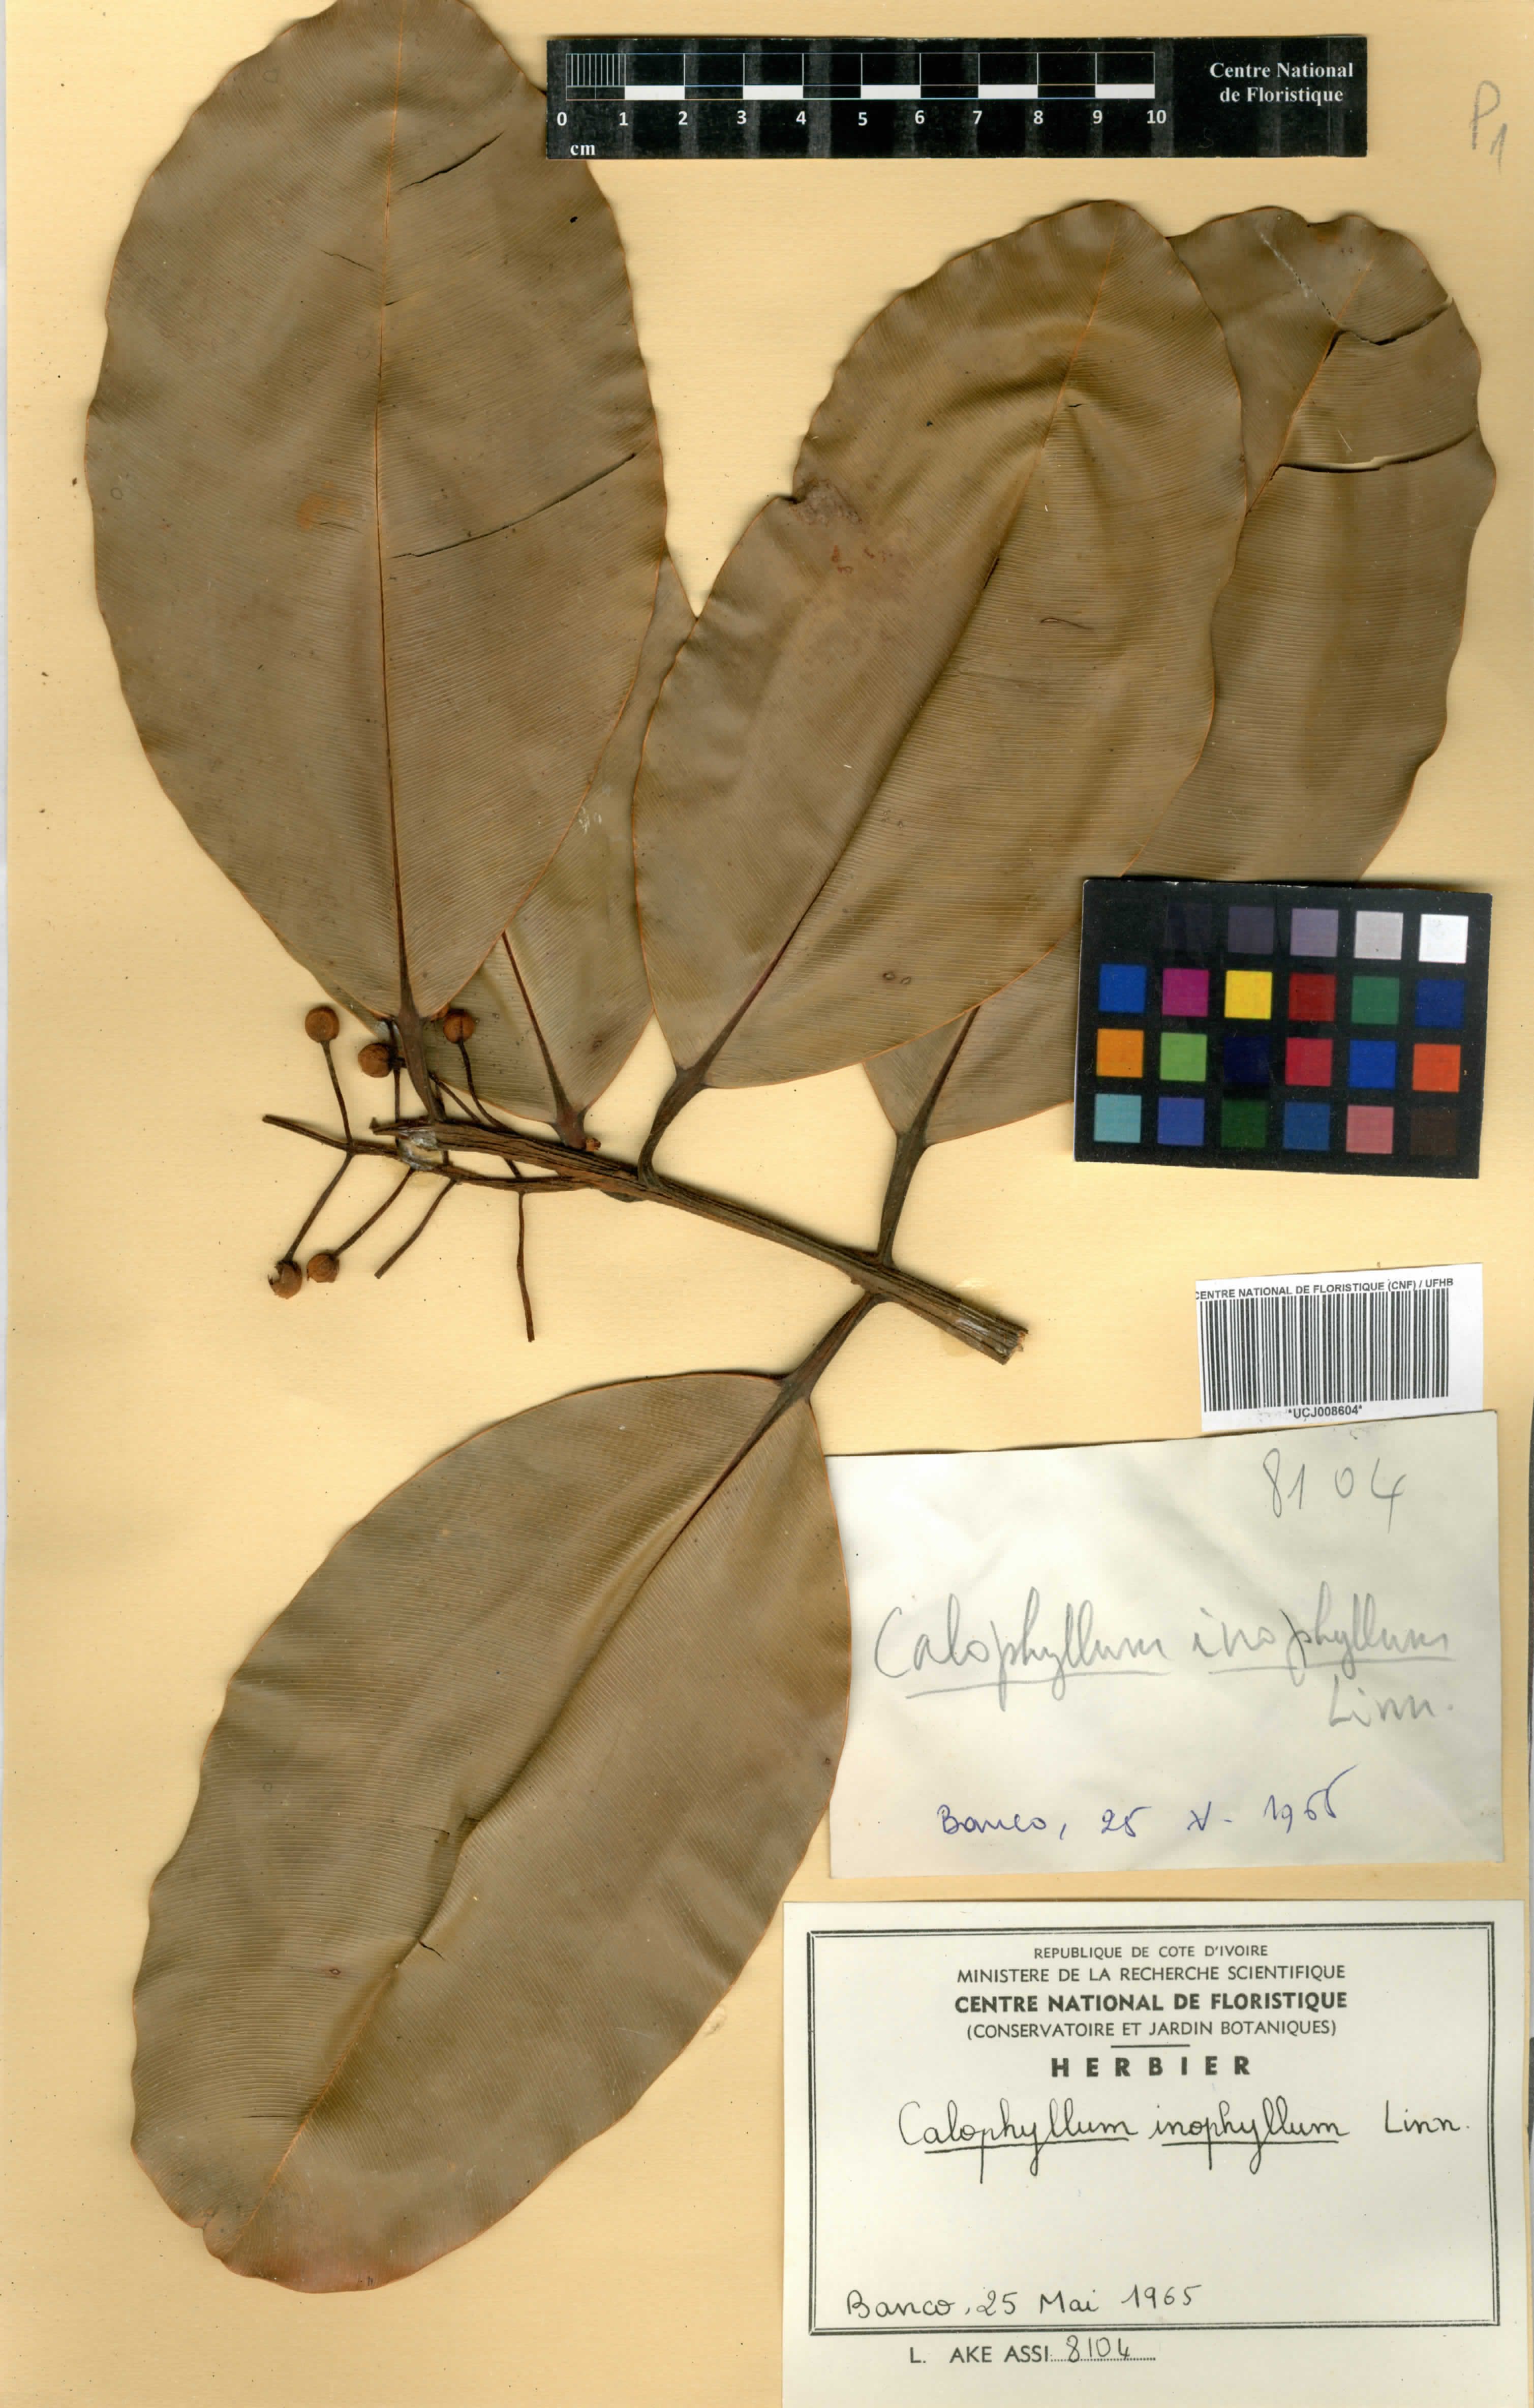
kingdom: Plantae
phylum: Tracheophyta
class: Magnoliopsida
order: Malpighiales
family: Calophyllaceae
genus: Calophyllum
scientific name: Calophyllum inophyllum
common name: Alexandrian laurel
